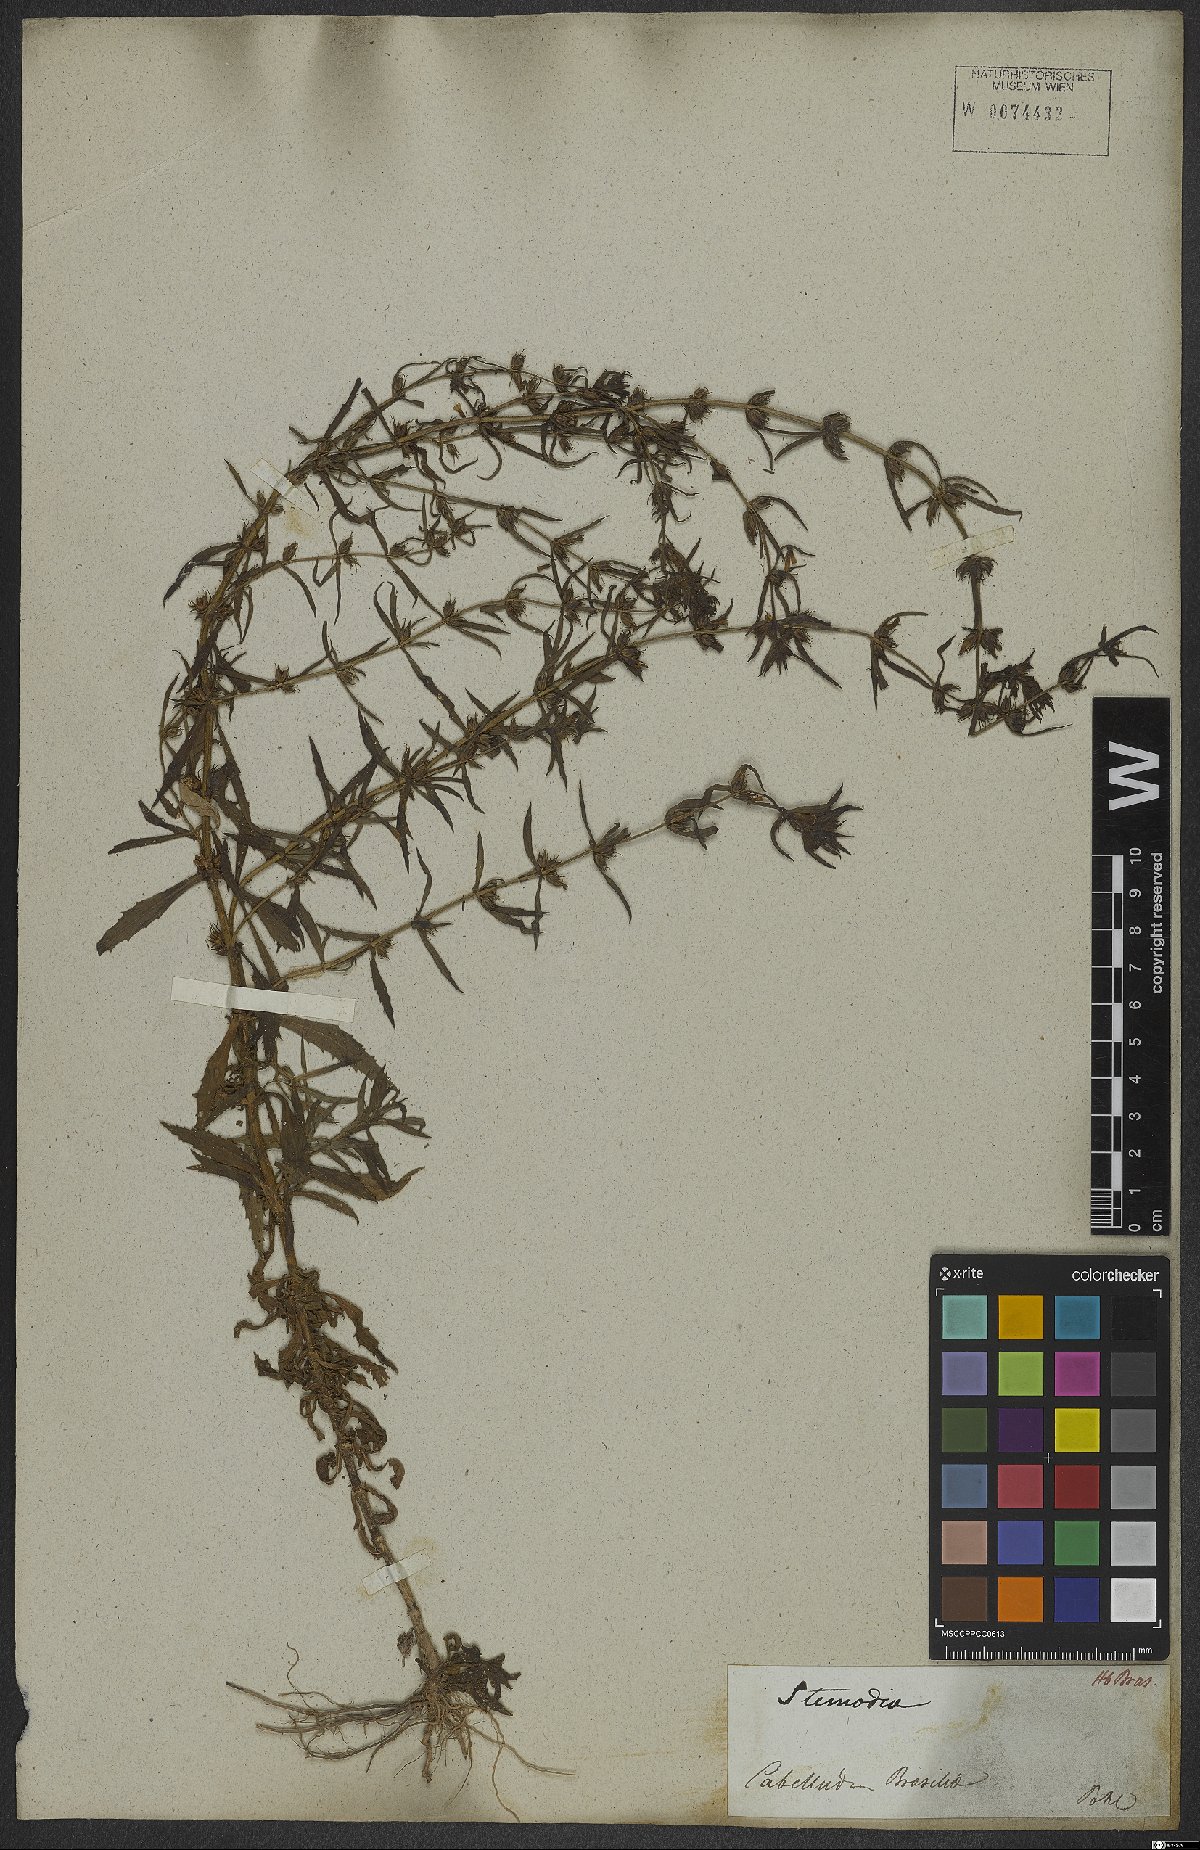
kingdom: Plantae
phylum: Tracheophyta
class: Magnoliopsida
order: Lamiales
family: Plantaginaceae
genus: Stemodia
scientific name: Stemodia
